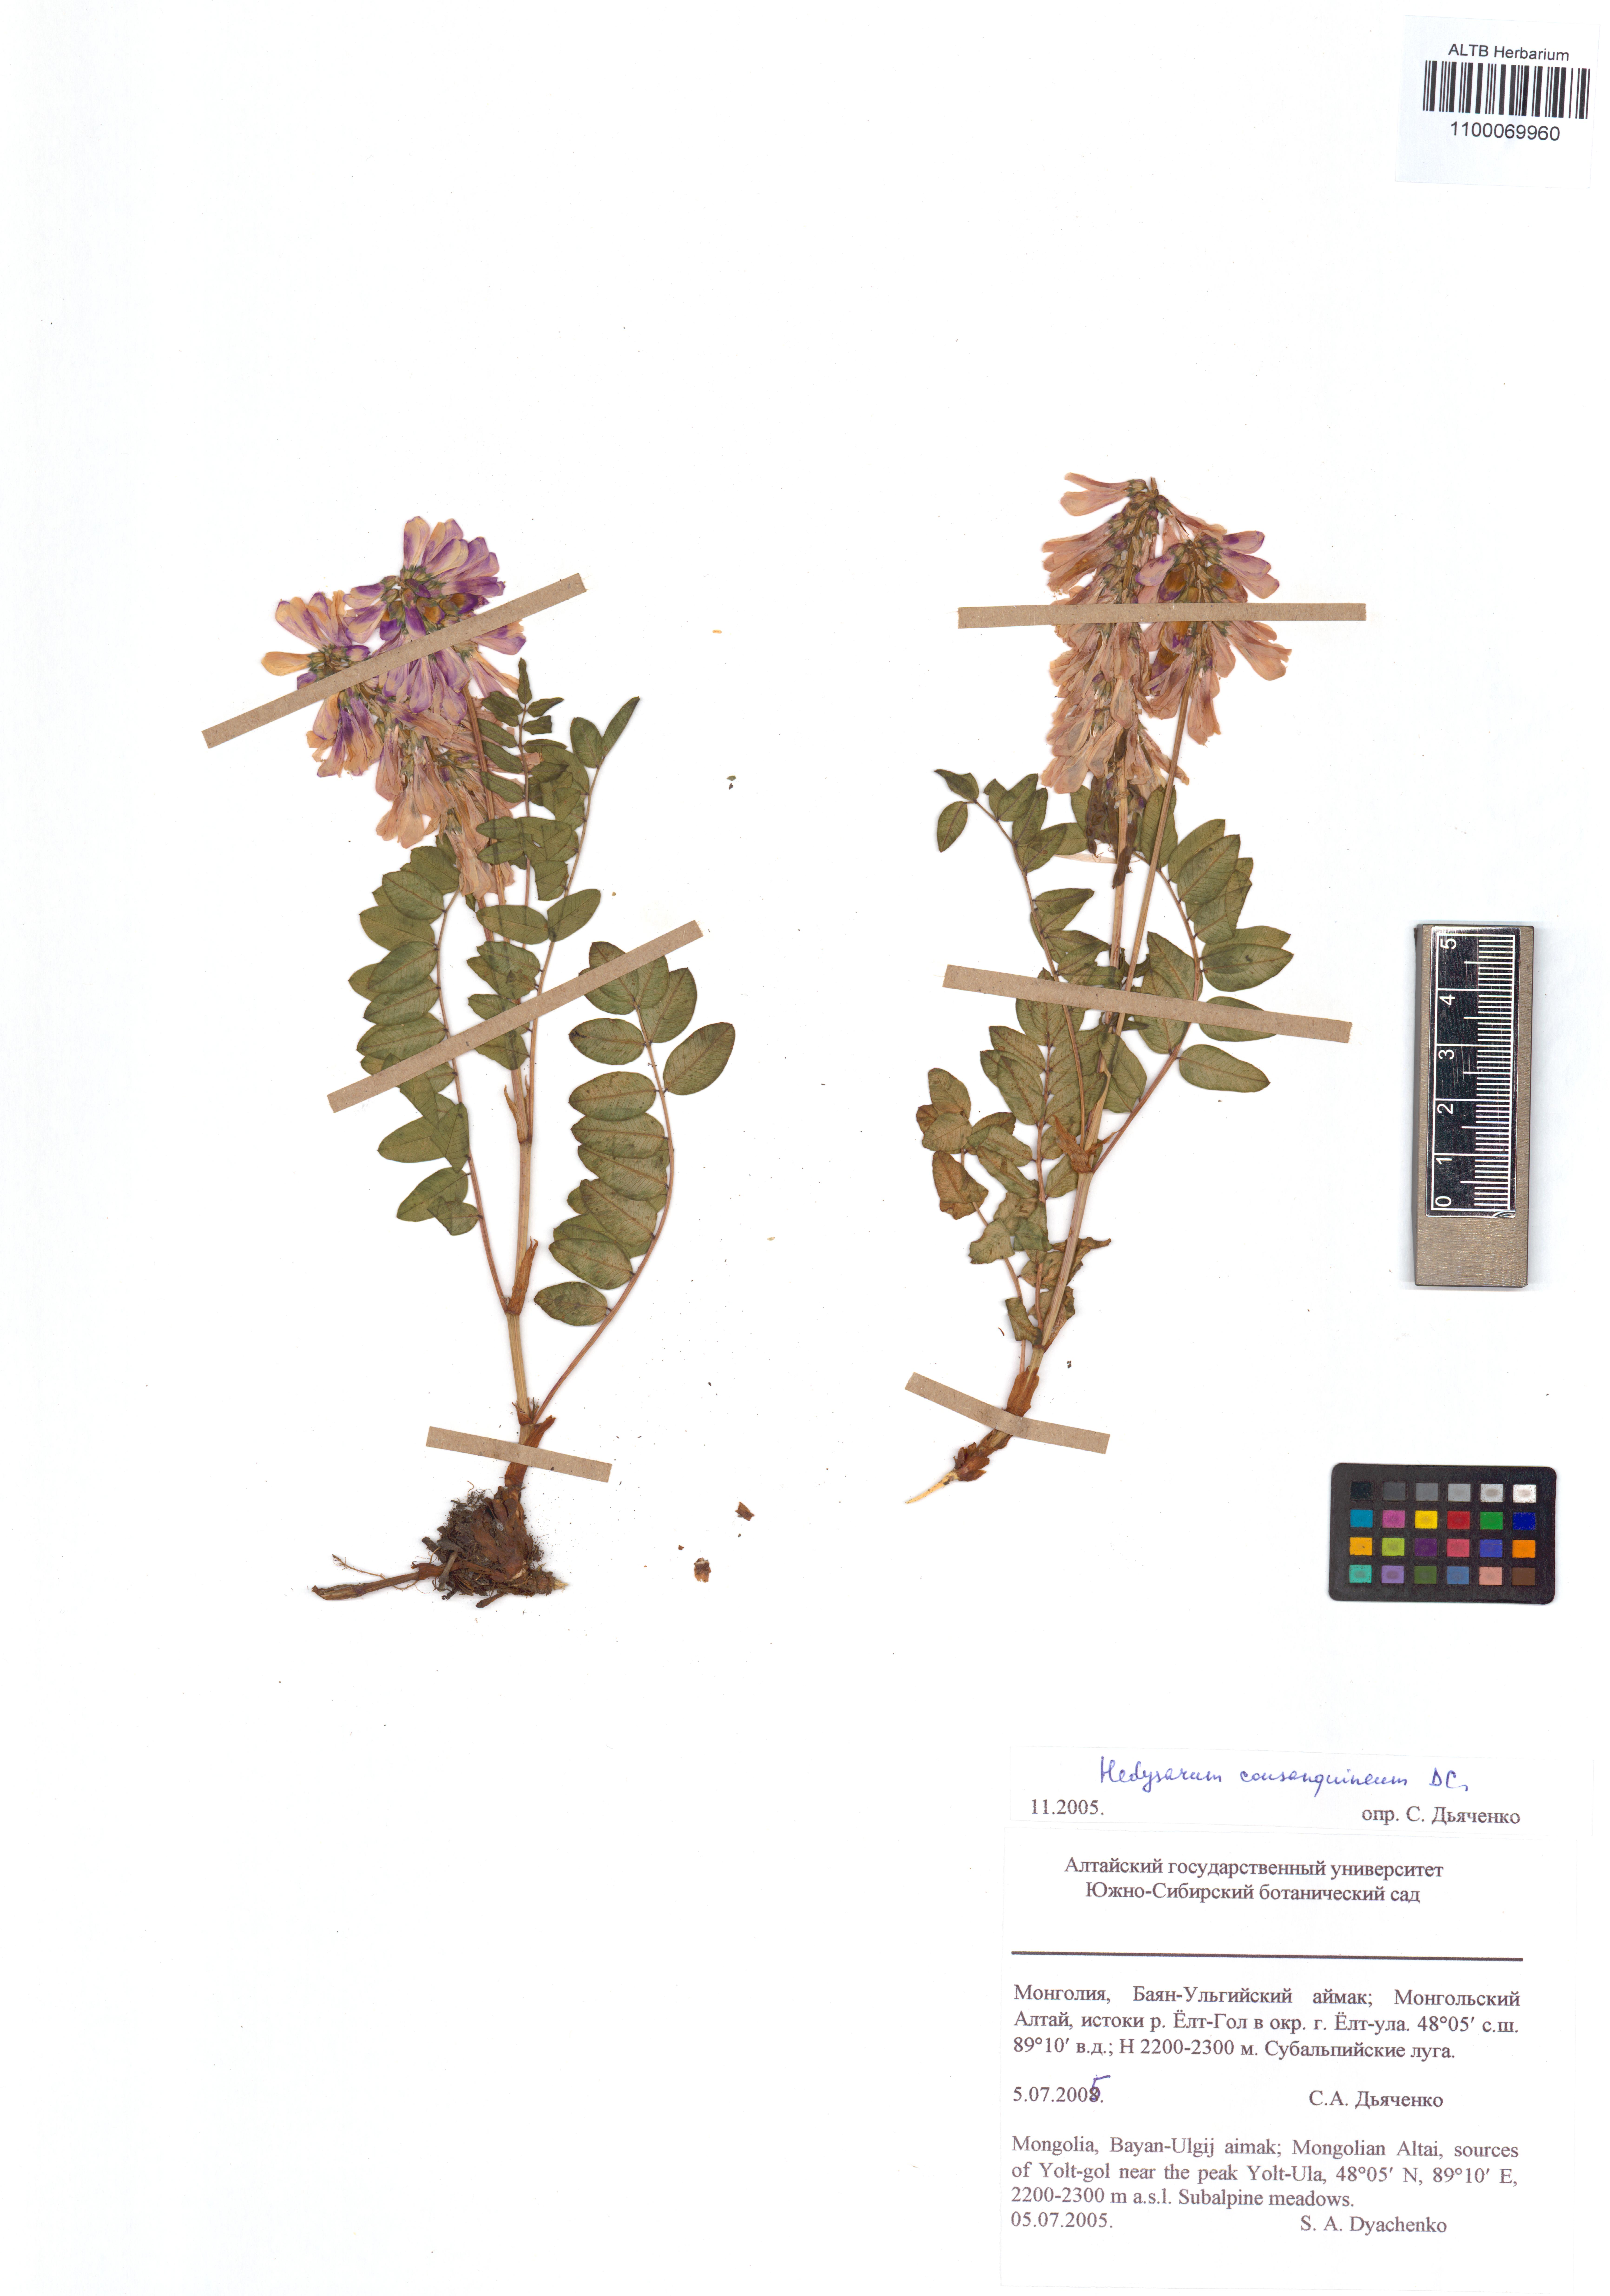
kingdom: Plantae
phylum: Tracheophyta
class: Magnoliopsida
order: Fabales
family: Fabaceae
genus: Hedysarum
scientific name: Hedysarum consanguineum
